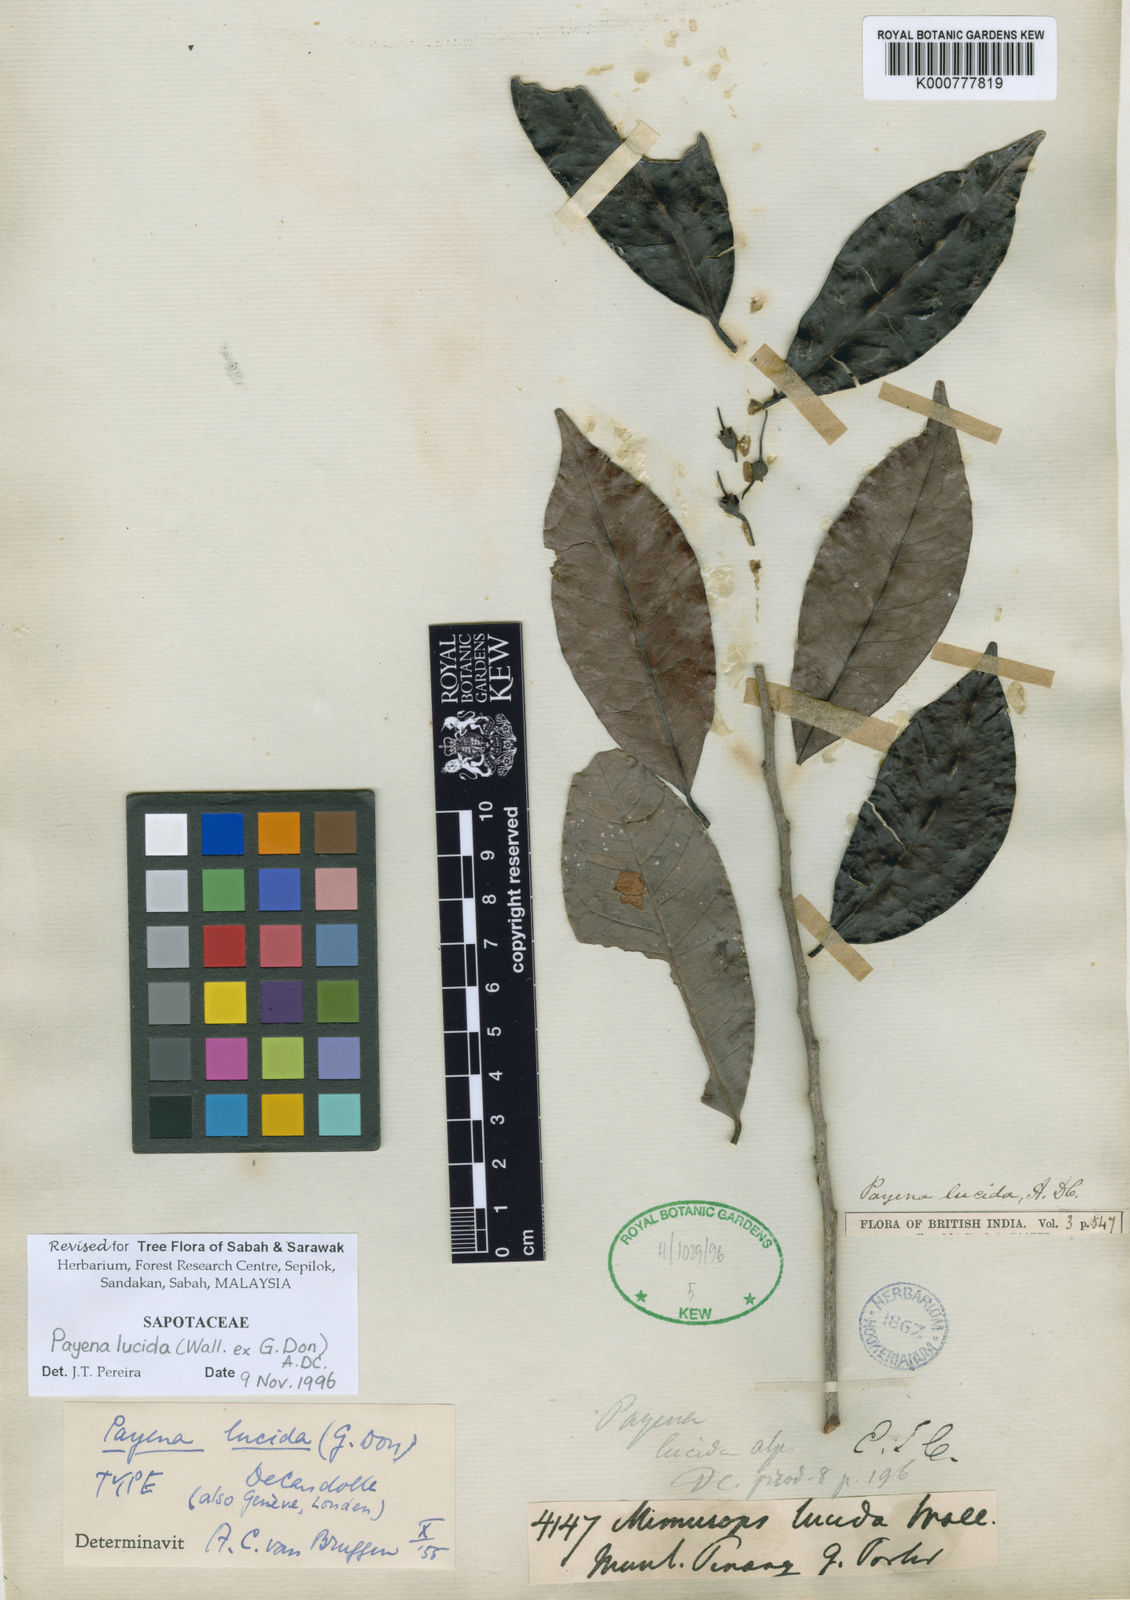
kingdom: Plantae
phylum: Tracheophyta
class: Magnoliopsida
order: Ericales
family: Sapotaceae
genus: Payena
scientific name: Payena lucida
